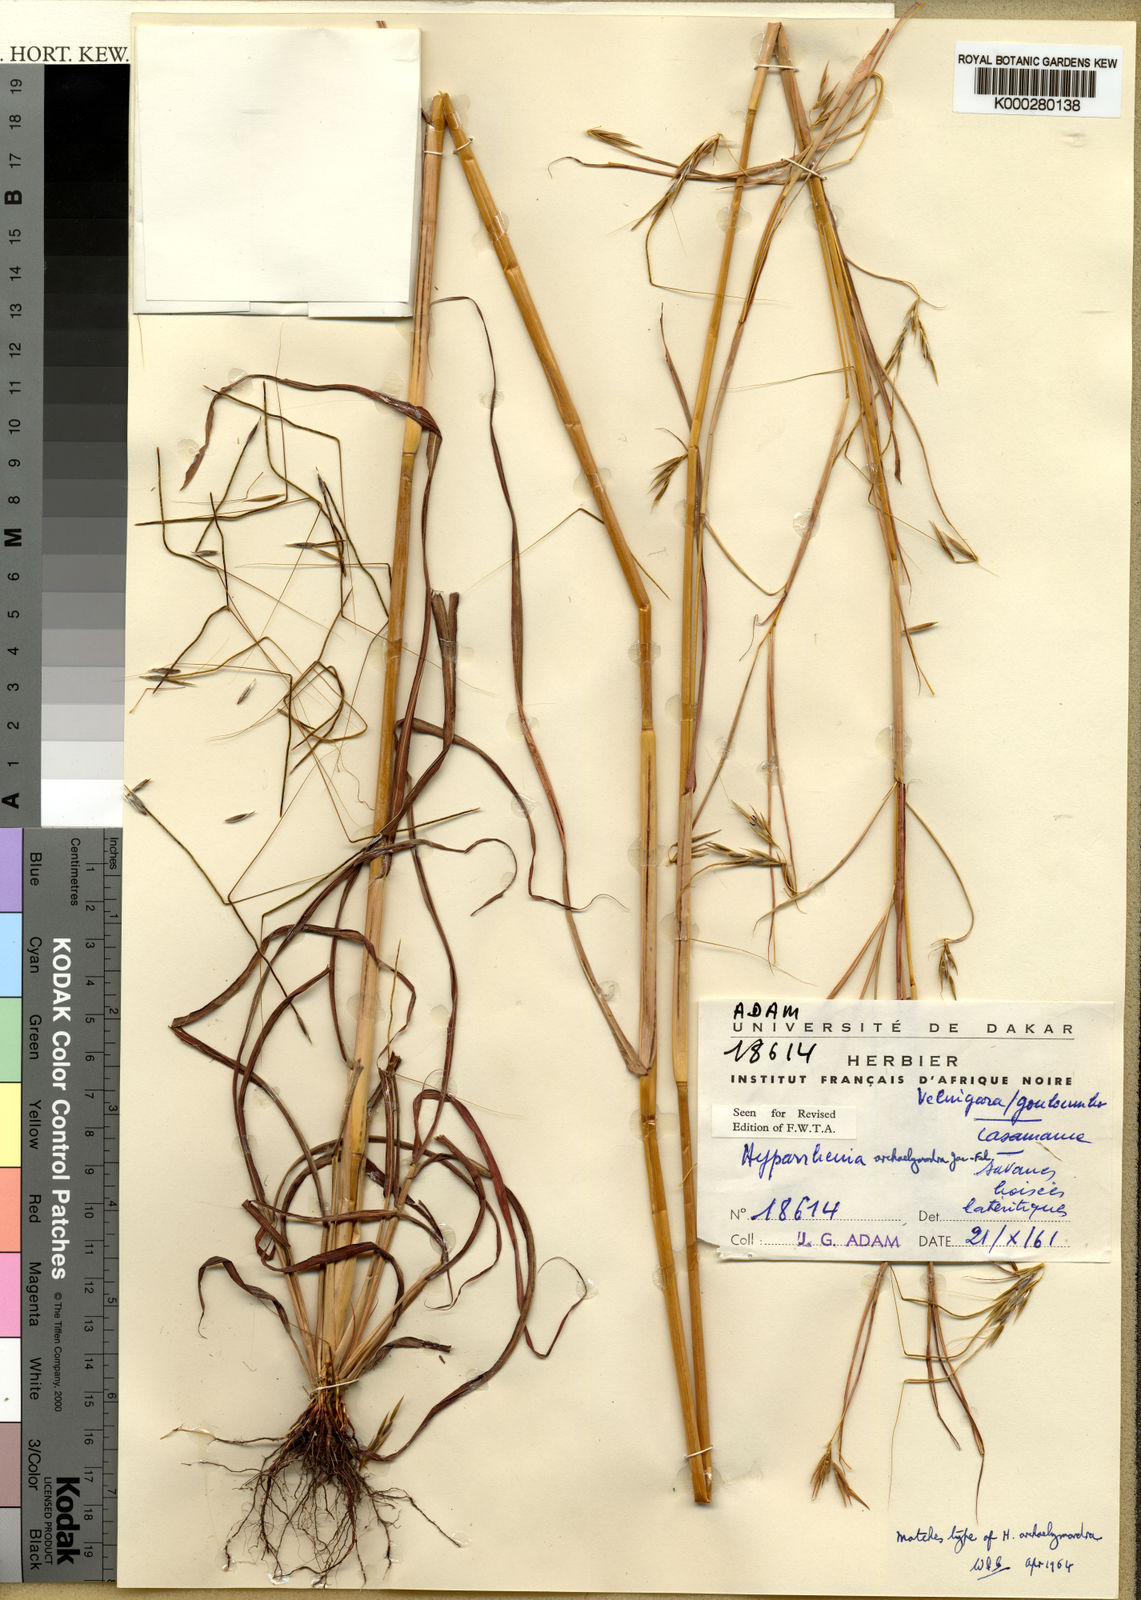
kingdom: Plantae
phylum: Tracheophyta
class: Liliopsida
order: Poales
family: Poaceae
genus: Elymandra
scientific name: Elymandra
